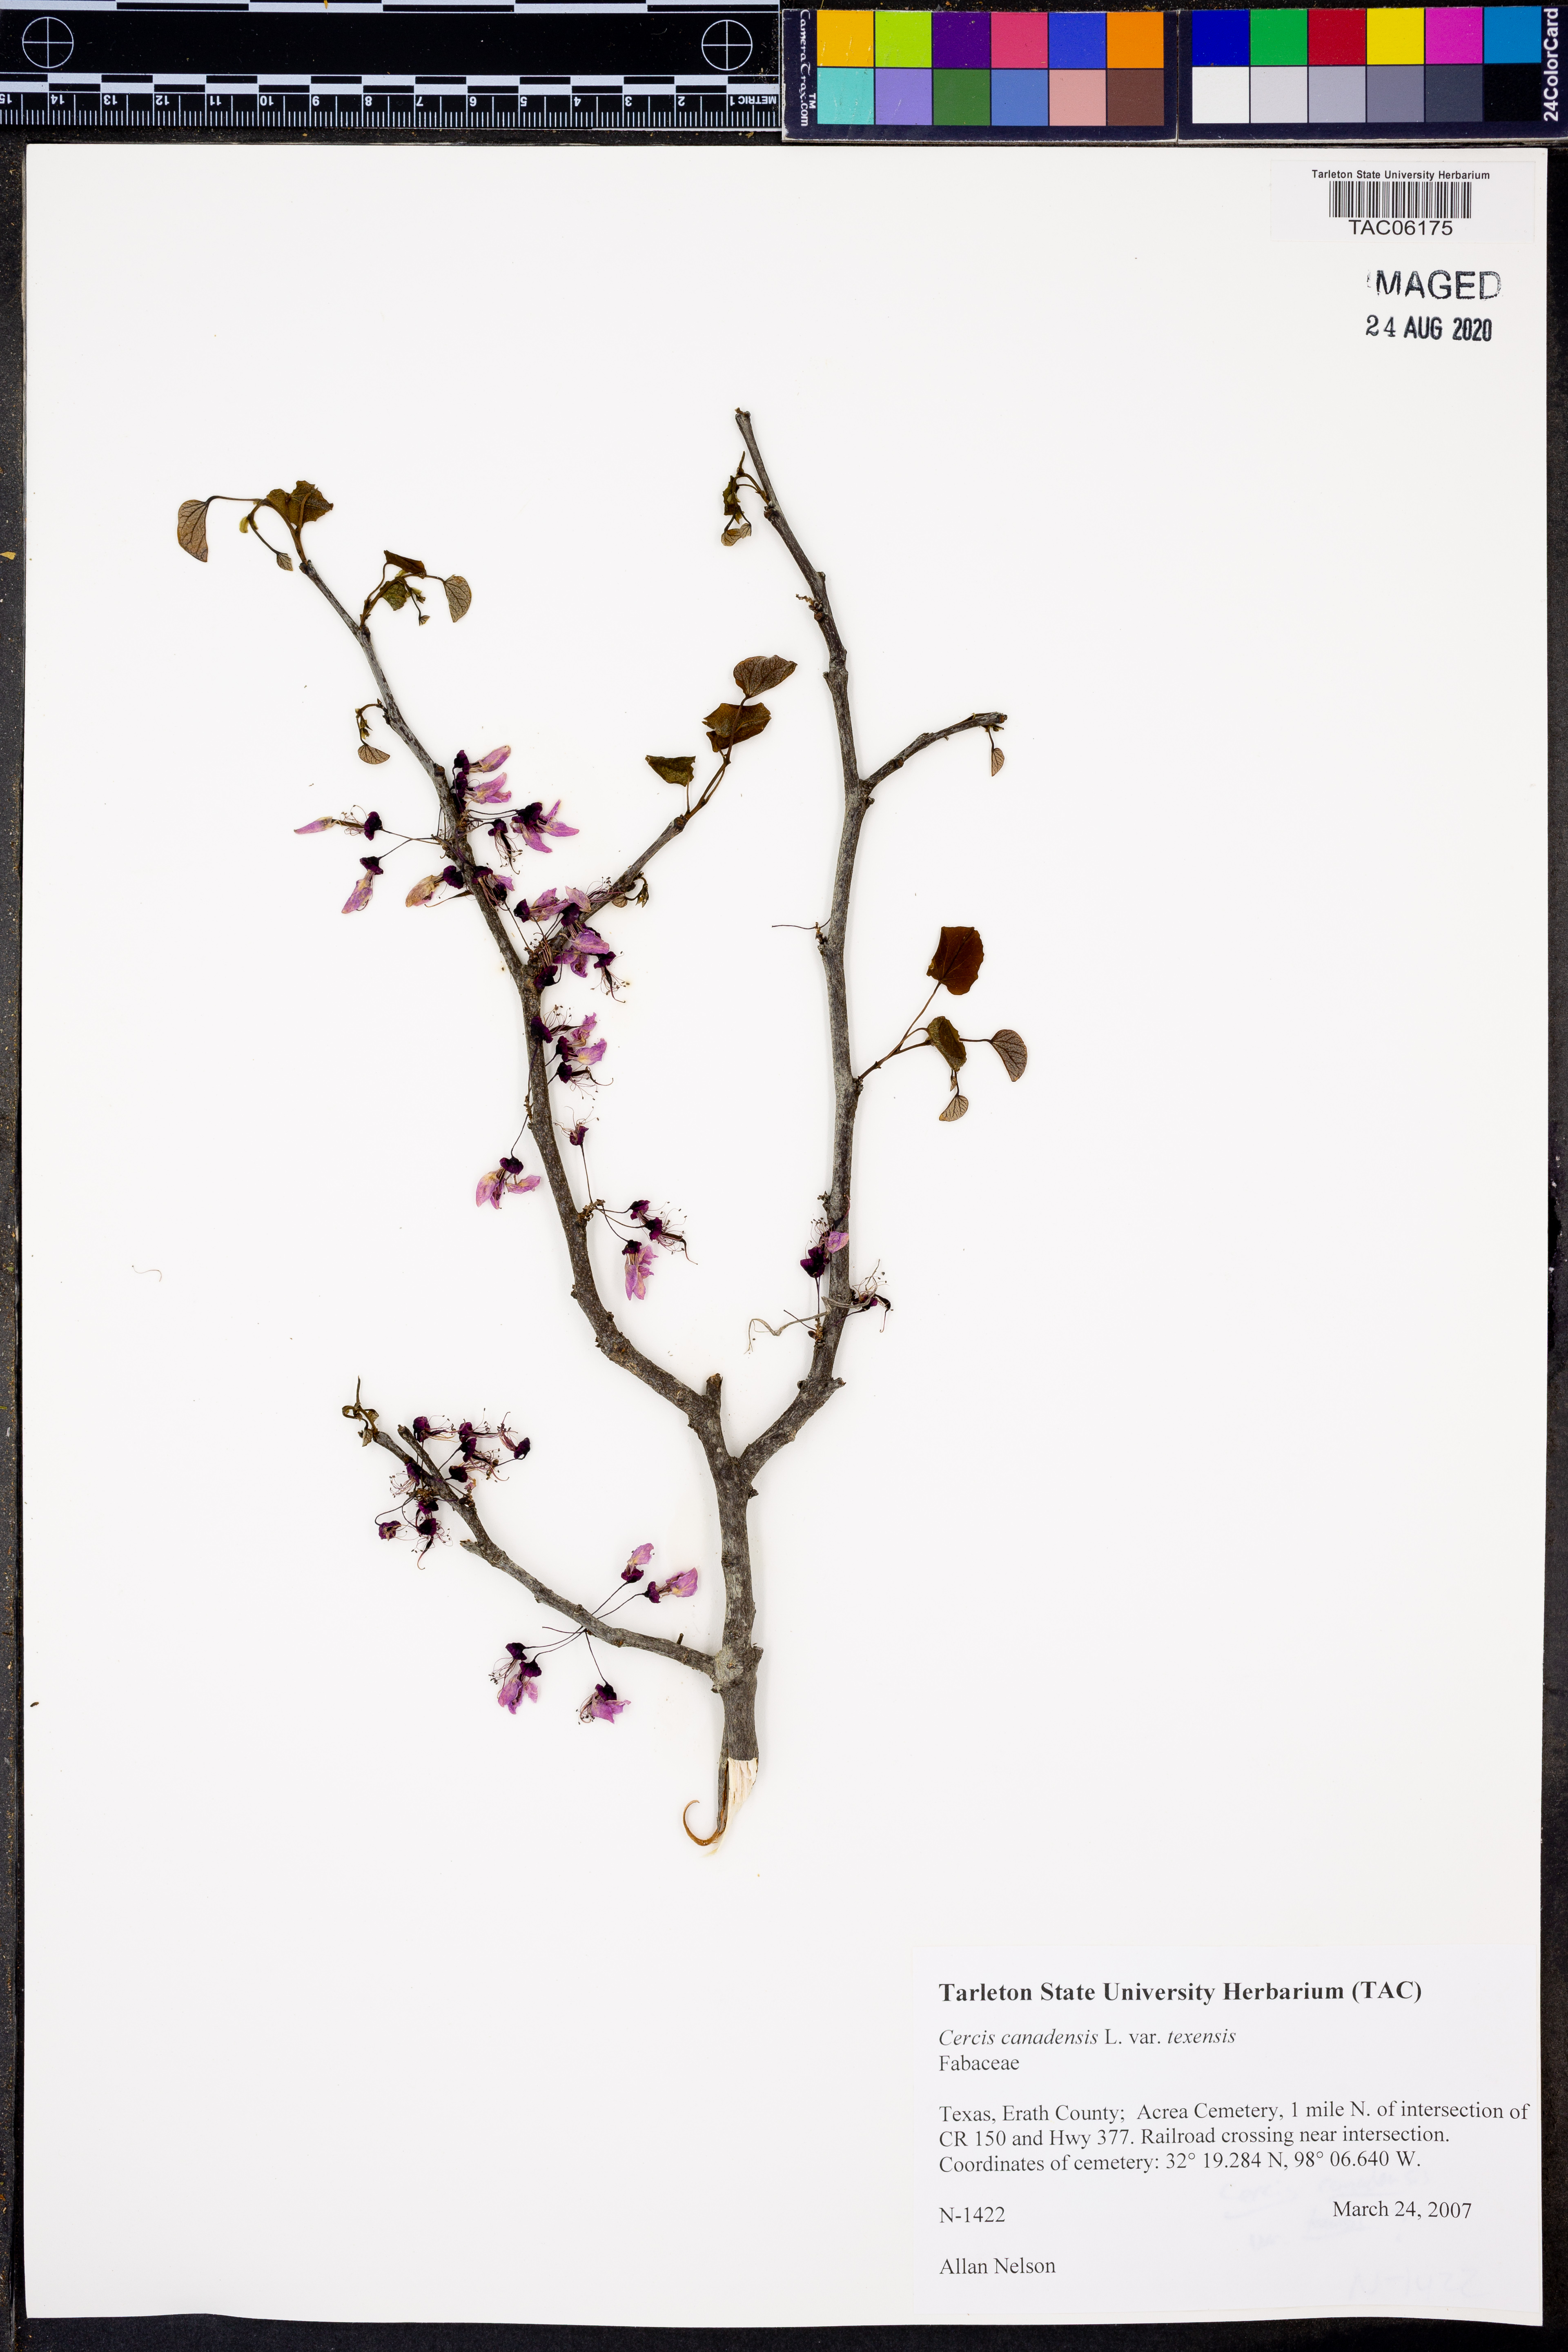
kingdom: Plantae
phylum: Tracheophyta
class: Magnoliopsida
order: Fabales
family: Fabaceae
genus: Cercis
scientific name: Cercis canadensis
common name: Eastern redbud
